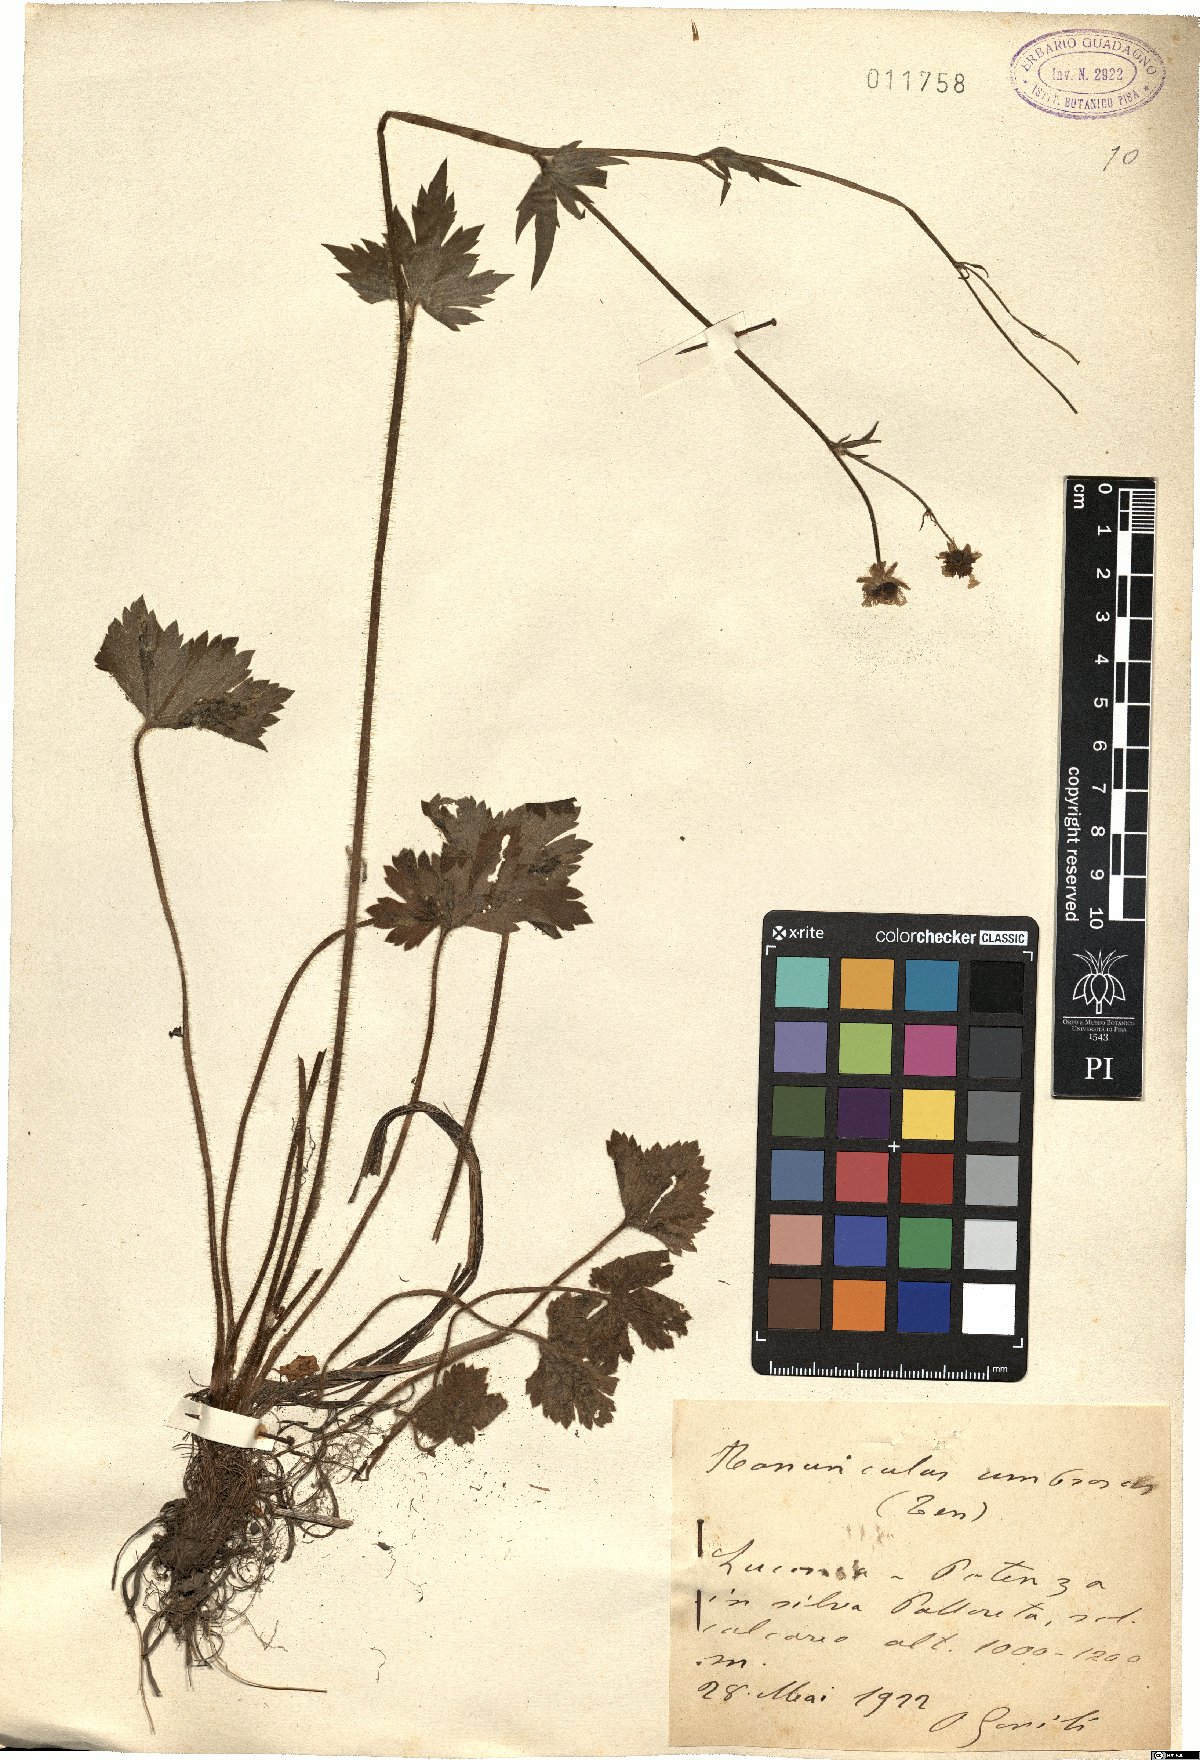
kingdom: Plantae
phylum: Tracheophyta
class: Magnoliopsida
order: Ranunculales
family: Ranunculaceae
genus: Ranunculus
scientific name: Ranunculus lanuginosus
